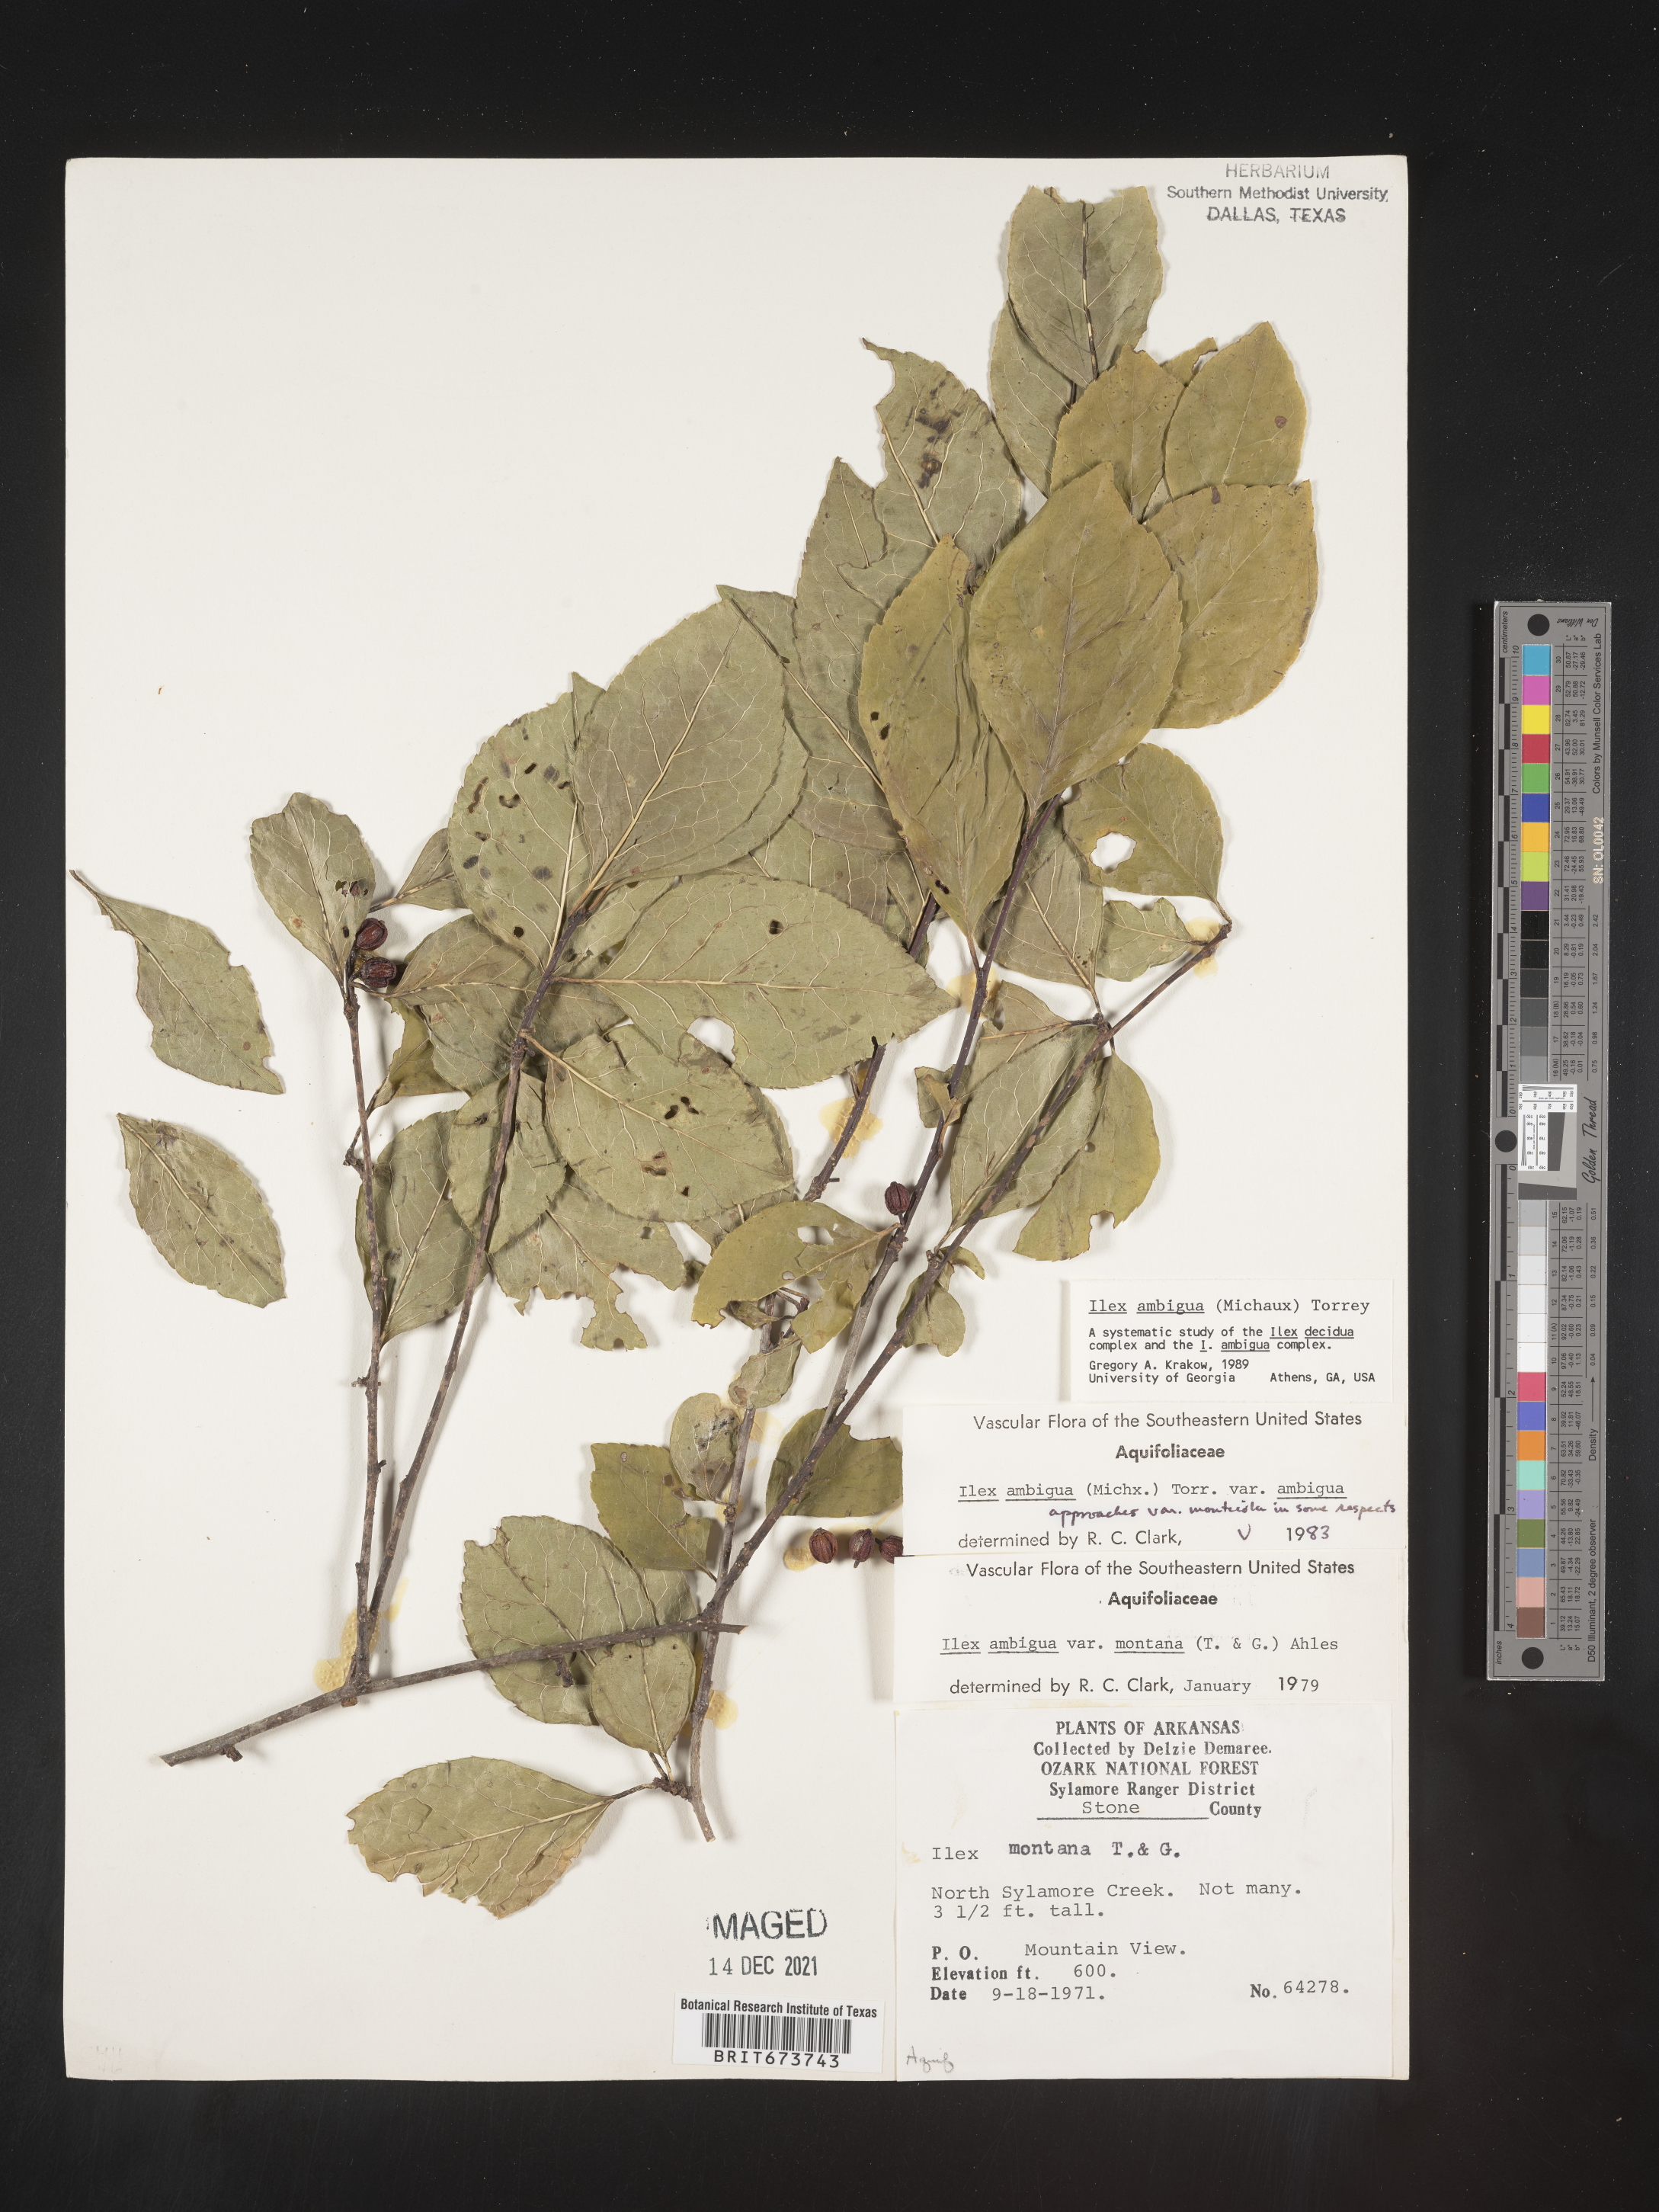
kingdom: Plantae
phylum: Tracheophyta
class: Magnoliopsida
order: Aquifoliales
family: Aquifoliaceae
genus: Ilex
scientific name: Ilex ambigua
